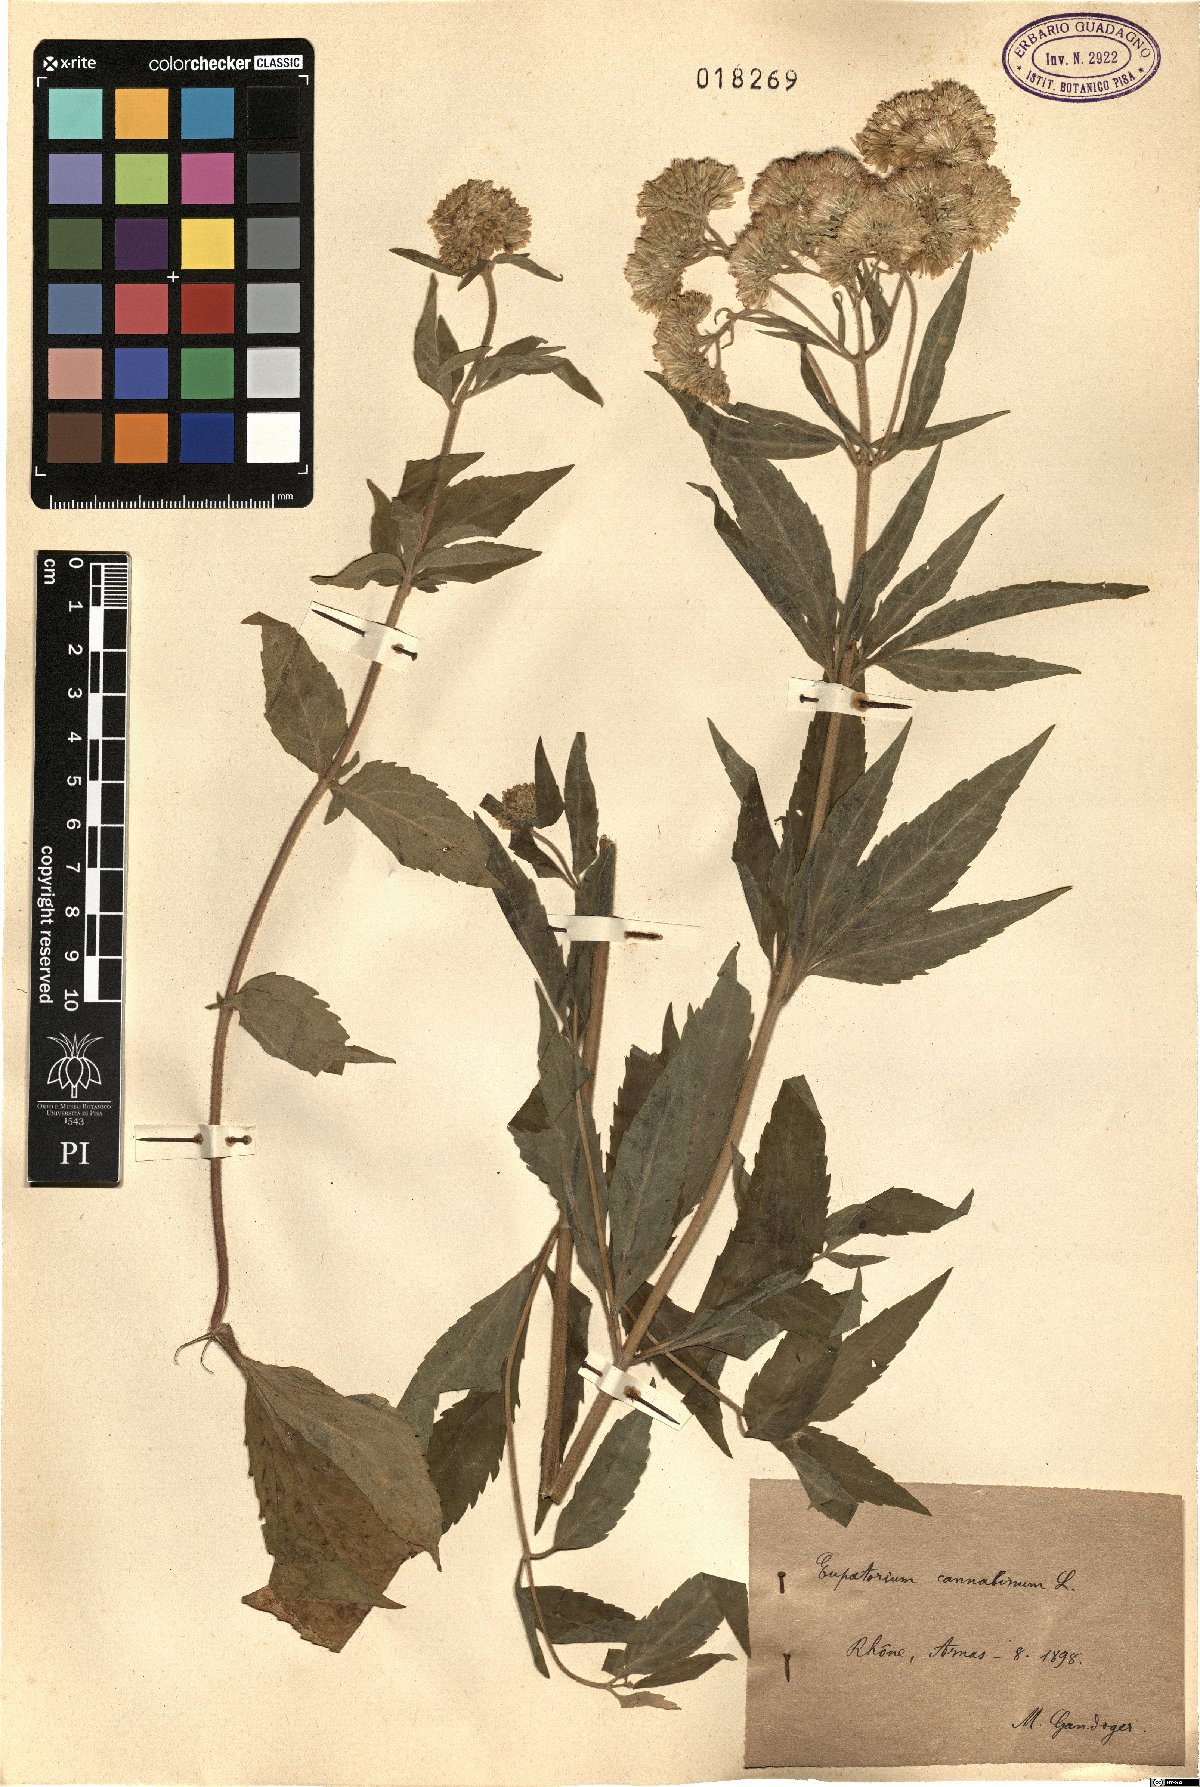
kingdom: Plantae
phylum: Tracheophyta
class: Magnoliopsida
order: Asterales
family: Asteraceae
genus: Eupatorium
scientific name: Eupatorium cannabinum
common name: Hemp-agrimony
